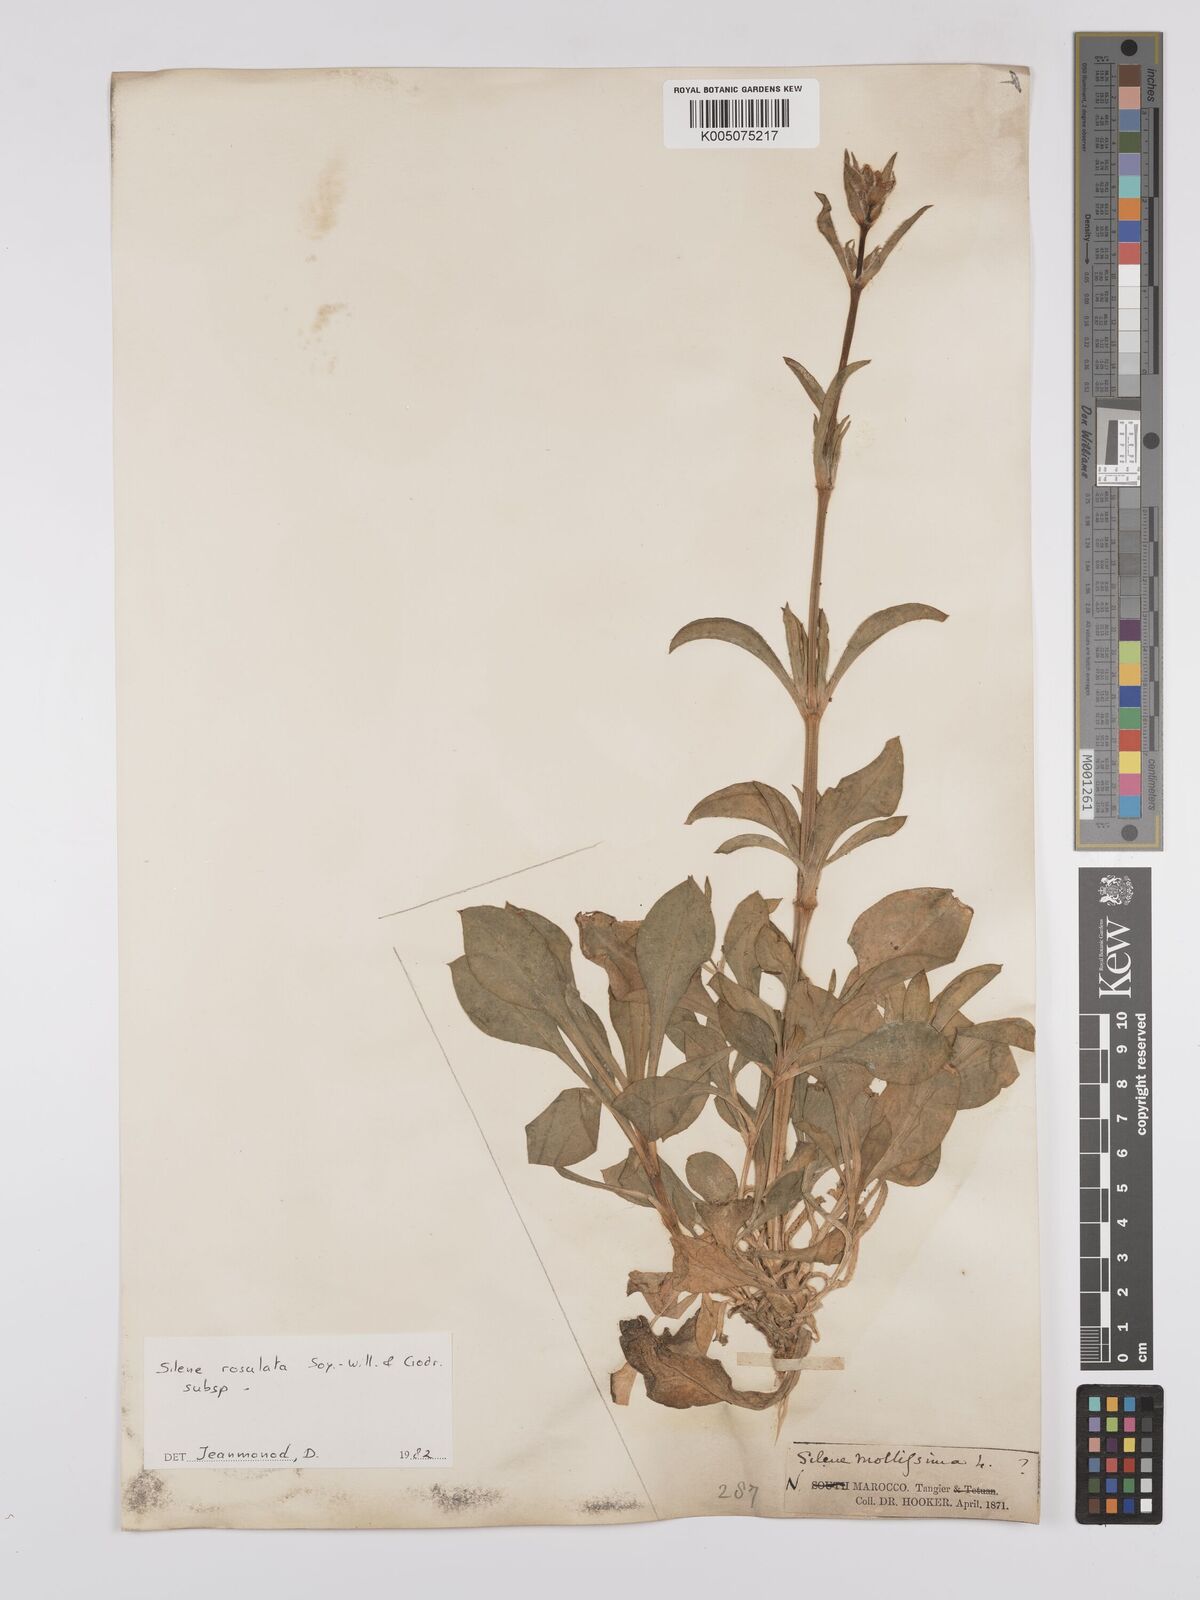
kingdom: Plantae
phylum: Tracheophyta
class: Magnoliopsida
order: Caryophyllales
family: Caryophyllaceae
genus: Silene
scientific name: Silene rosulata
